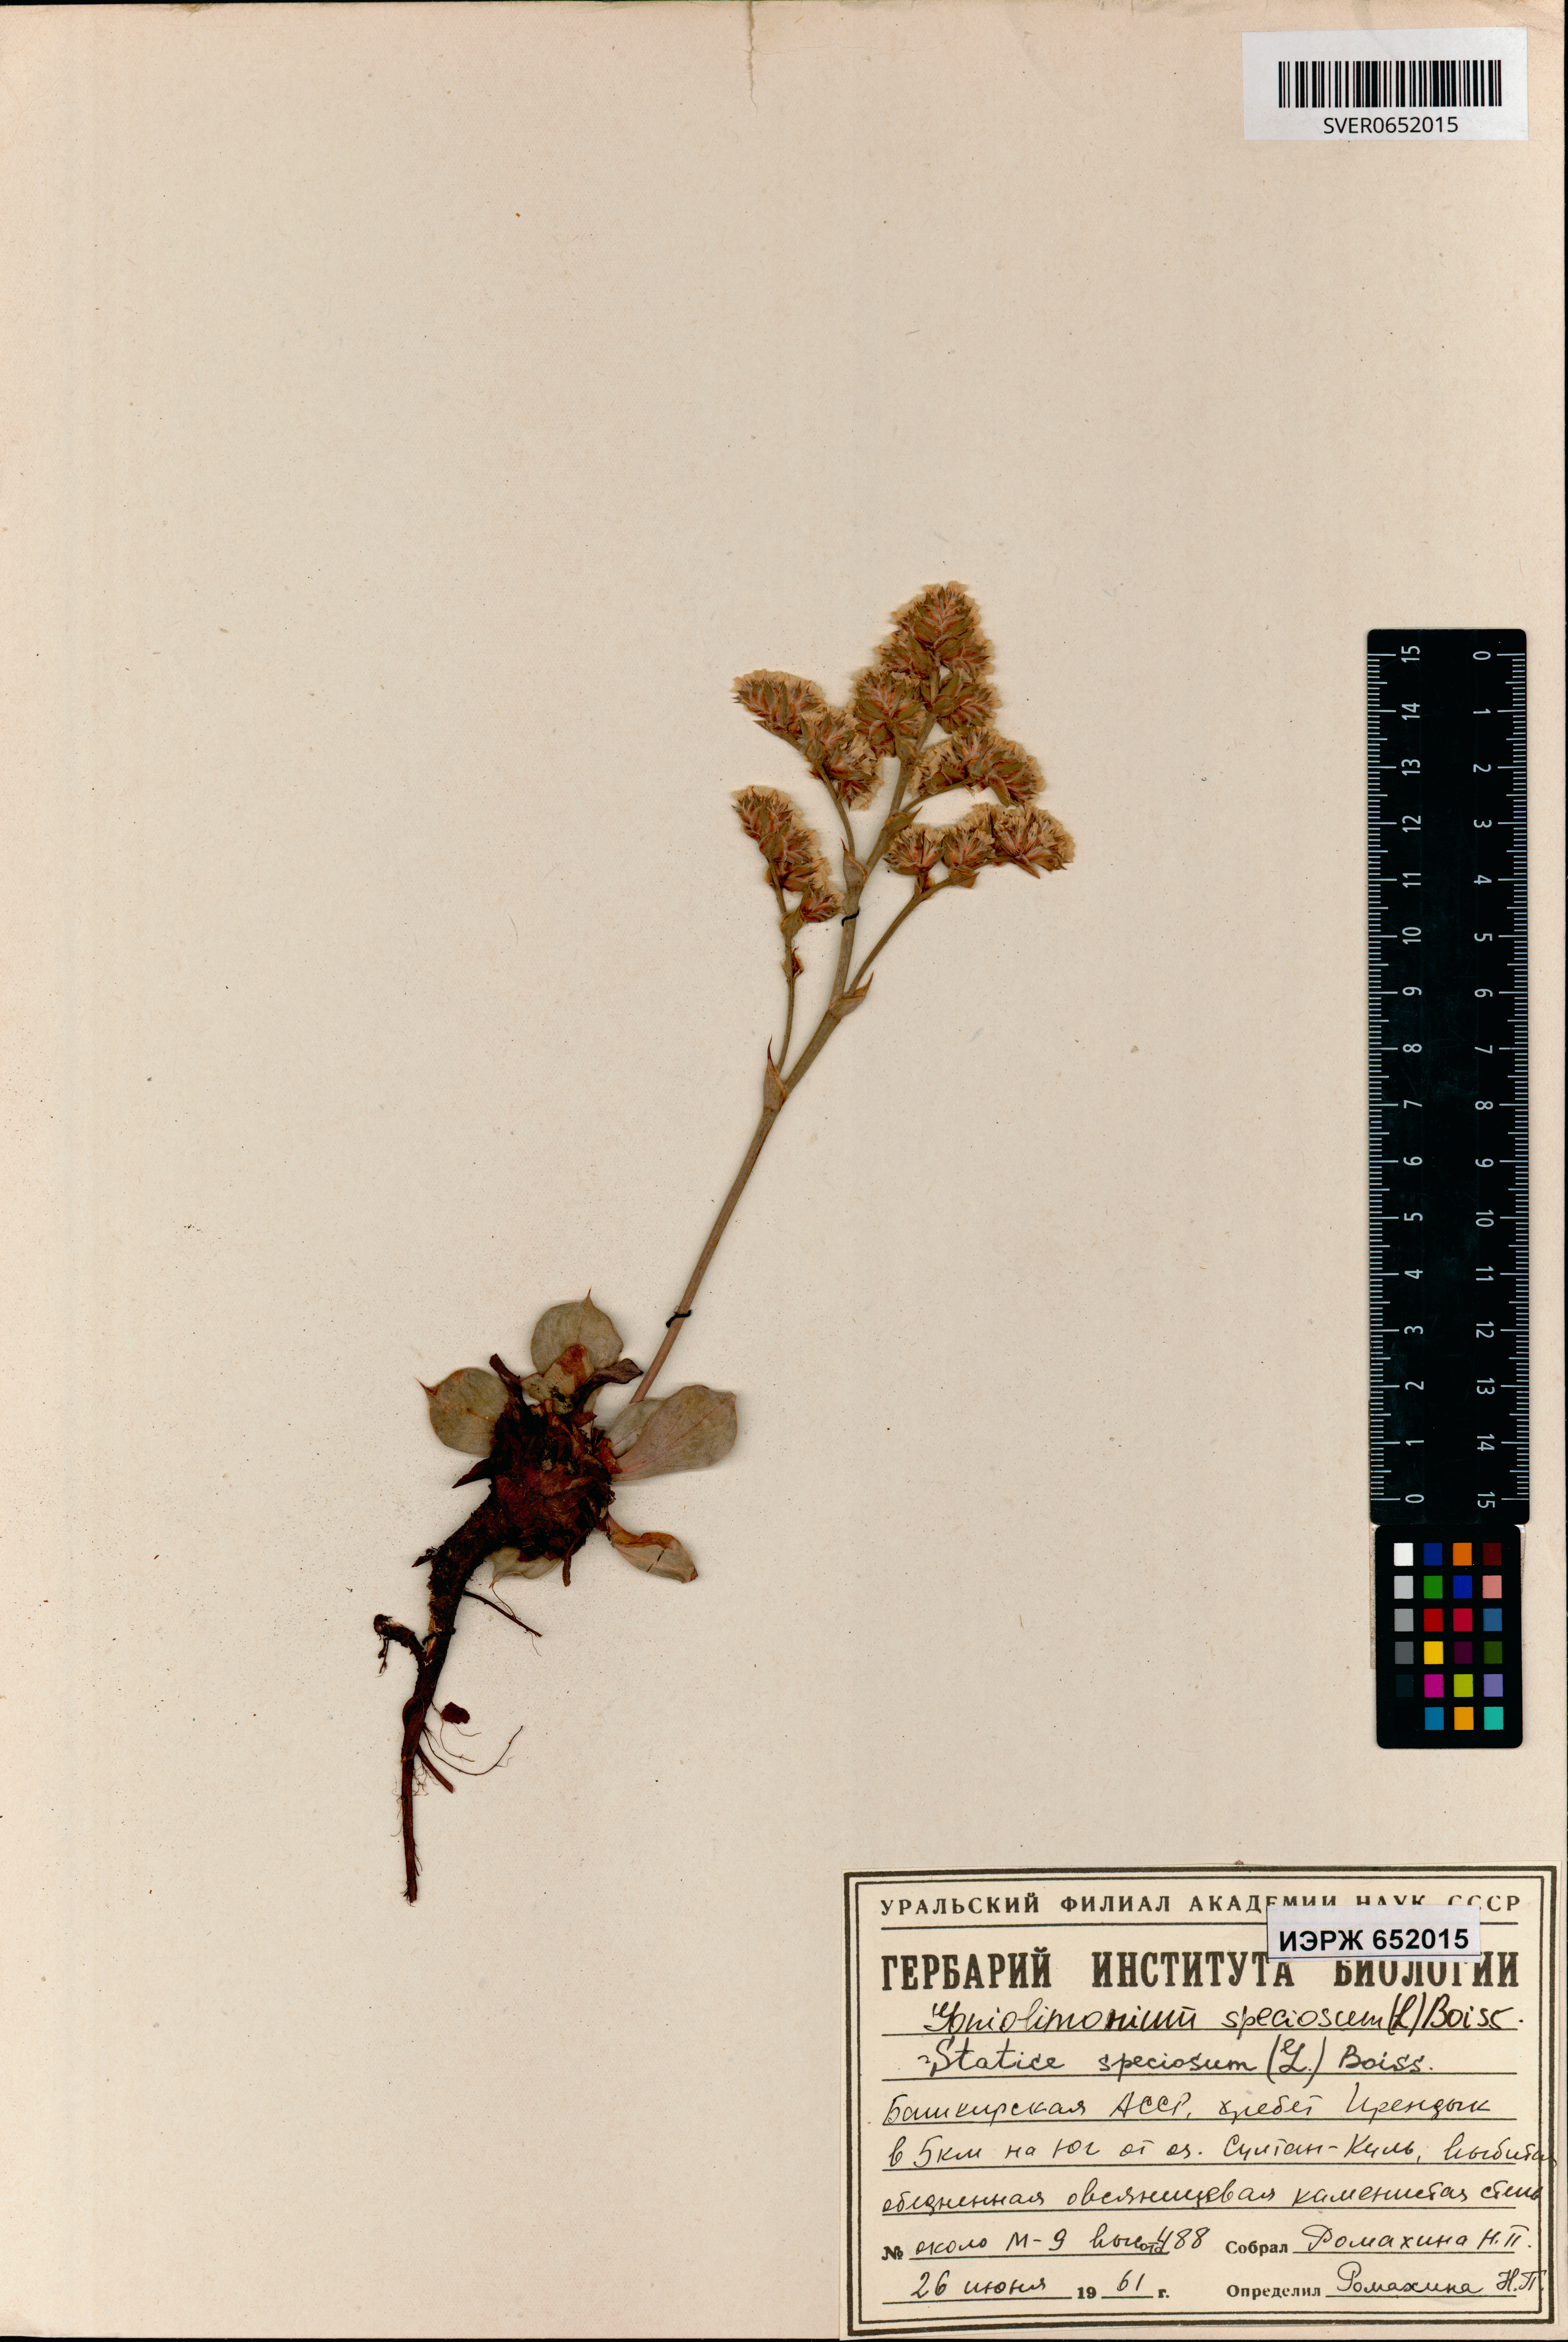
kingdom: Plantae
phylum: Tracheophyta
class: Magnoliopsida
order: Caryophyllales
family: Plumbaginaceae
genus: Goniolimon
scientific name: Goniolimon speciosum
